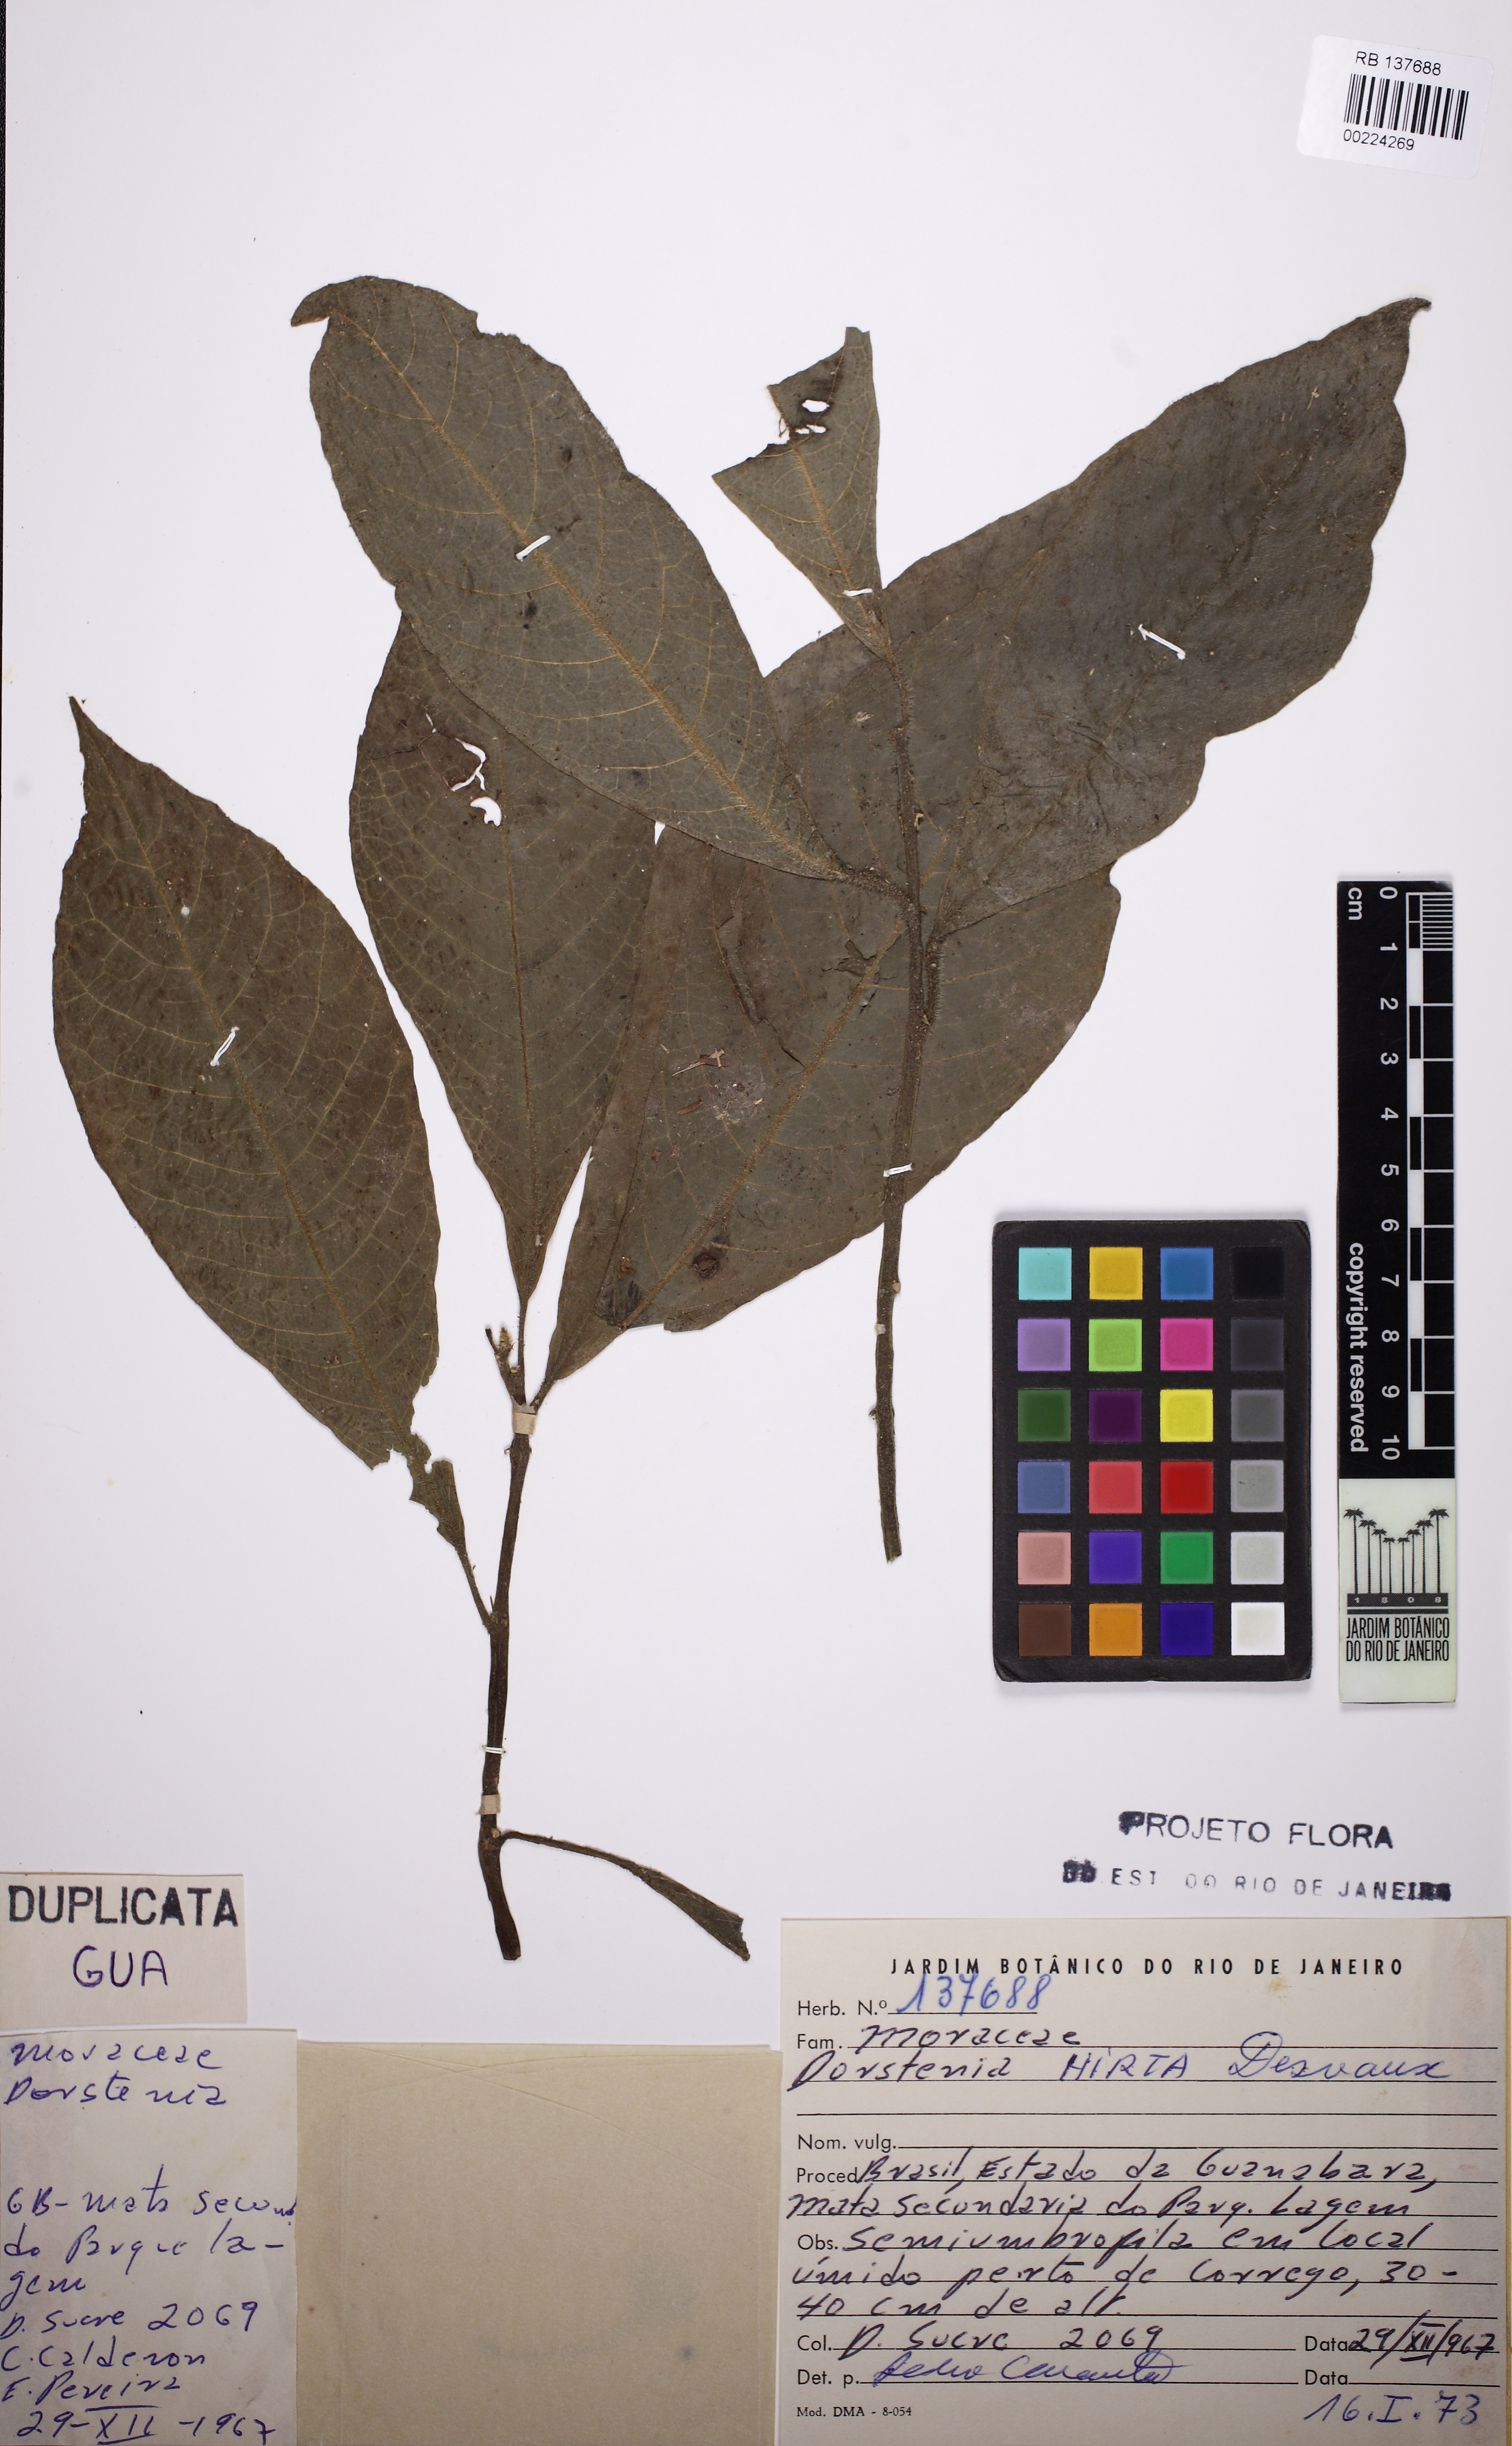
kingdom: Plantae
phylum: Tracheophyta
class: Magnoliopsida
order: Rosales
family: Moraceae
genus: Dorstenia
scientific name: Dorstenia hirta
